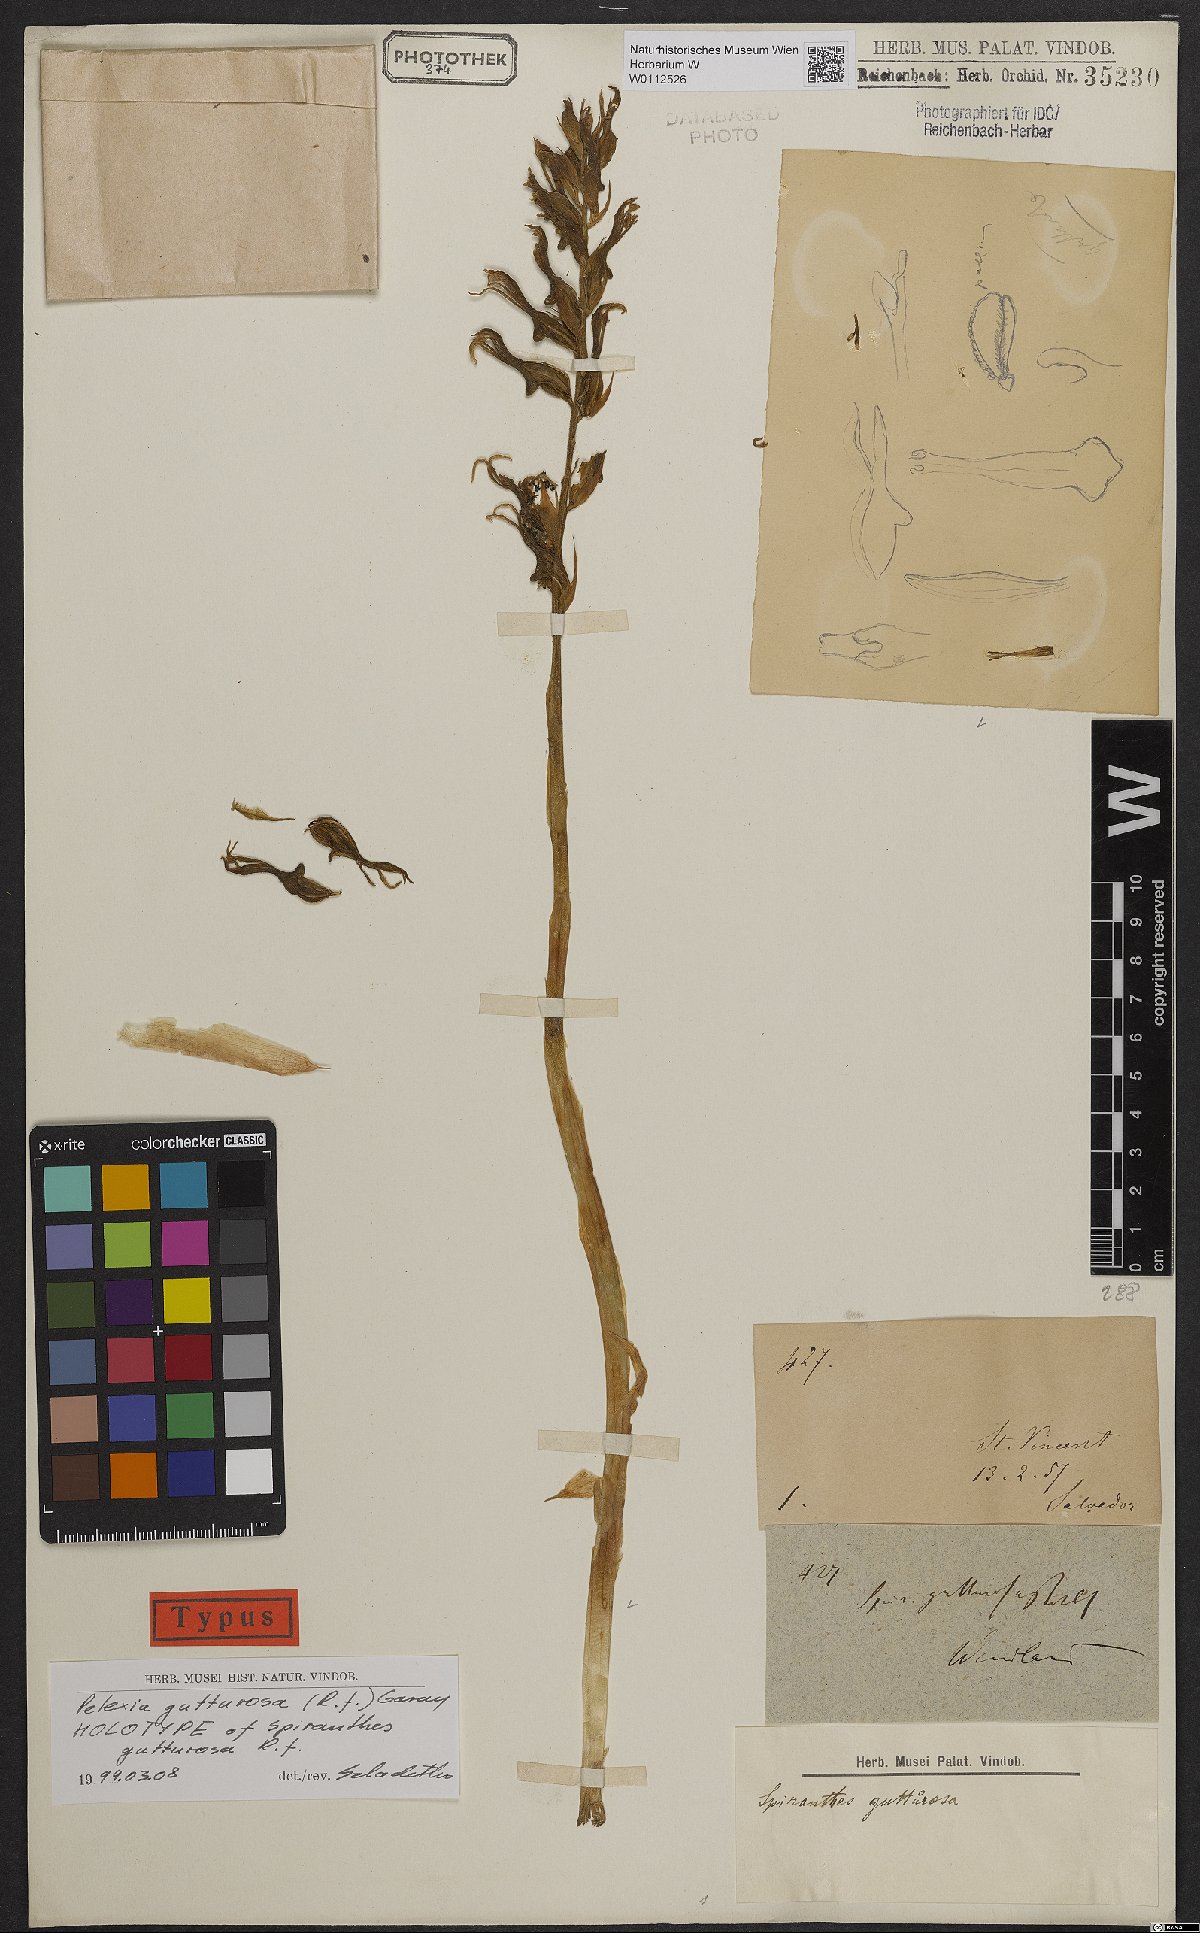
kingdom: Plantae
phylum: Tracheophyta
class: Liliopsida
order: Asparagales
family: Orchidaceae
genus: Pelexia
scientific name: Pelexia gutturosa
